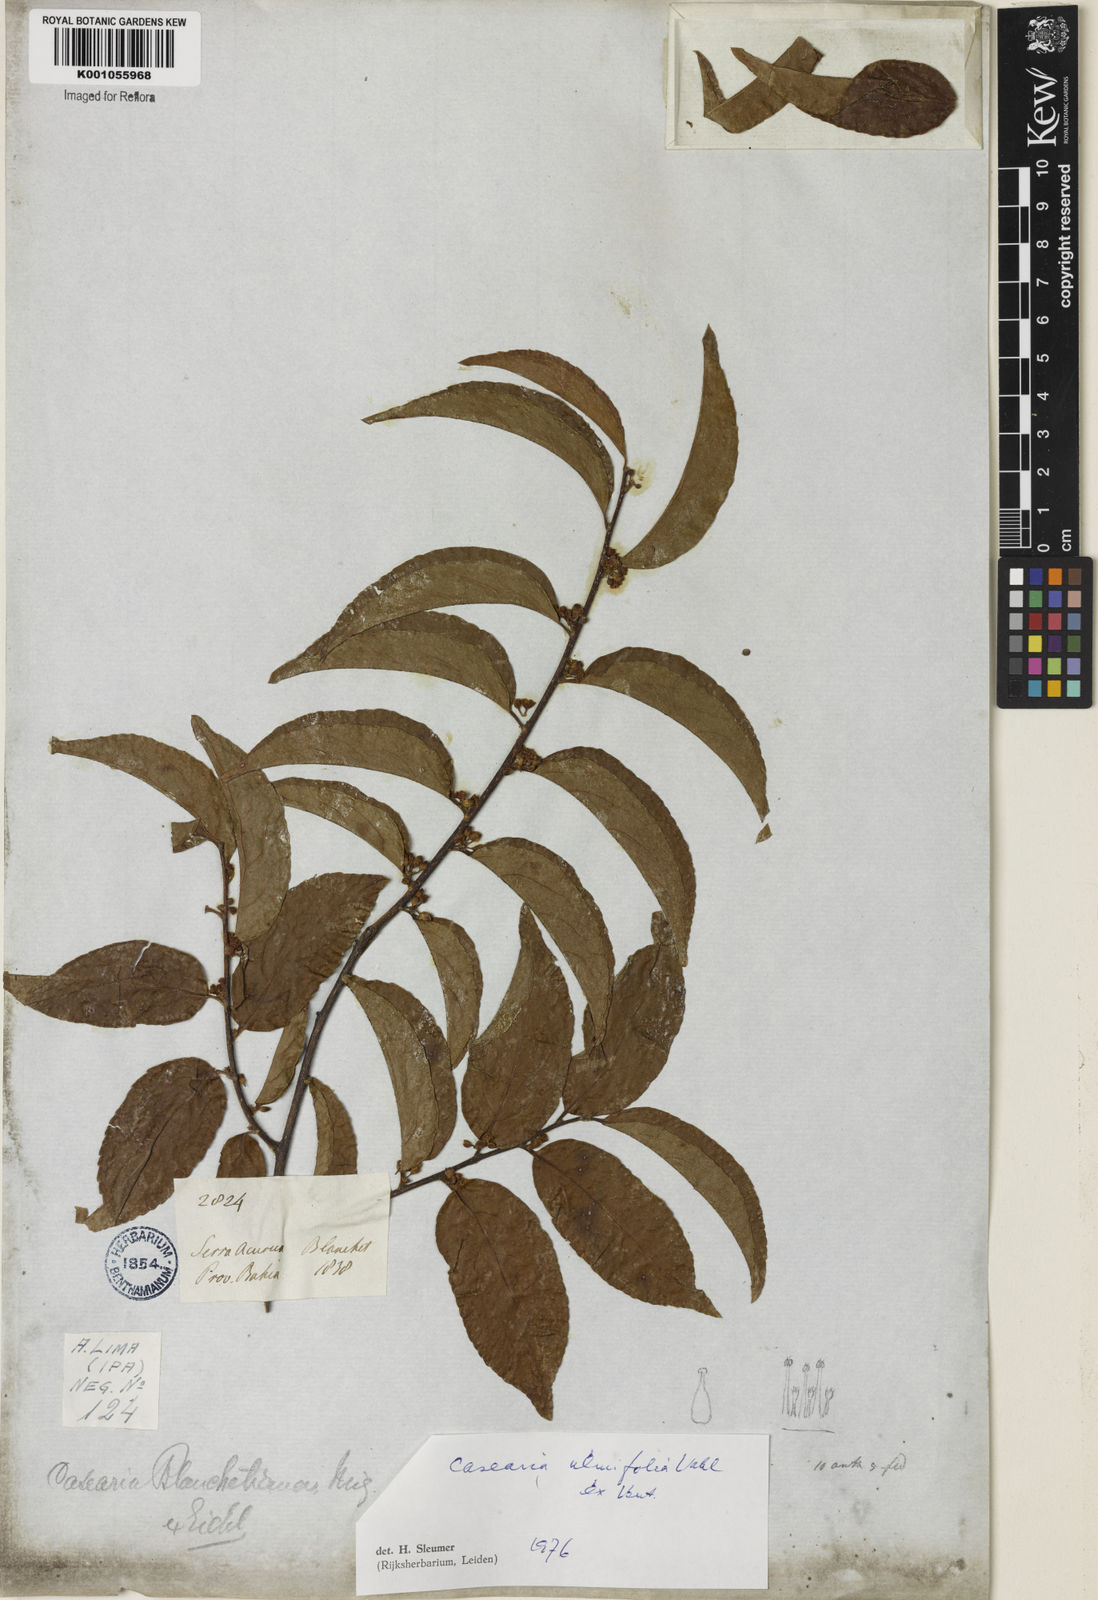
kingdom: Plantae
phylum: Tracheophyta
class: Magnoliopsida
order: Malpighiales
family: Salicaceae
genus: Casearia
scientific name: Casearia ulmifolia
